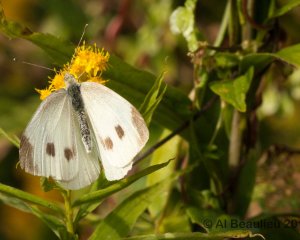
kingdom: Animalia
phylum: Arthropoda
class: Insecta
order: Lepidoptera
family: Pieridae
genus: Pieris
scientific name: Pieris rapae
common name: Cabbage White
